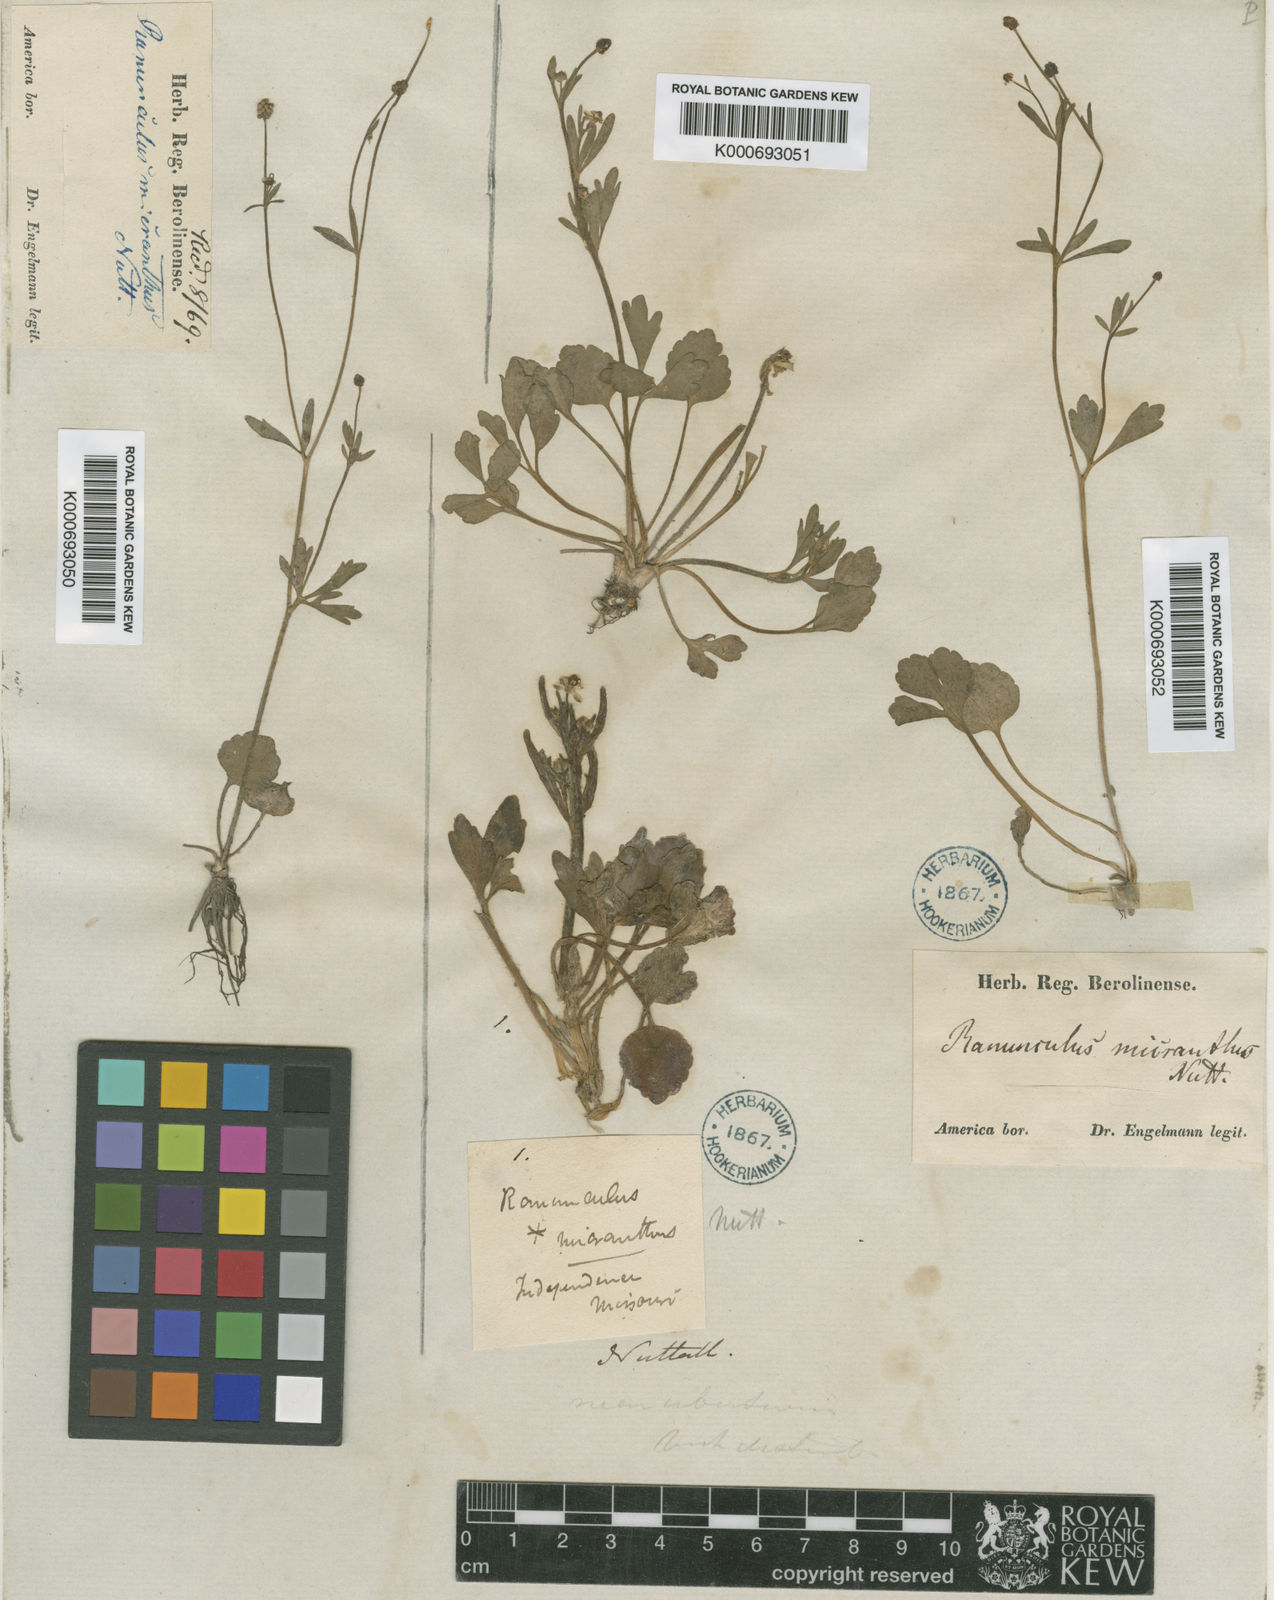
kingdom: Plantae
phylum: Tracheophyta
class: Magnoliopsida
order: Ranunculales
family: Ranunculaceae
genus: Ranunculus
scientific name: Ranunculus micranthus
